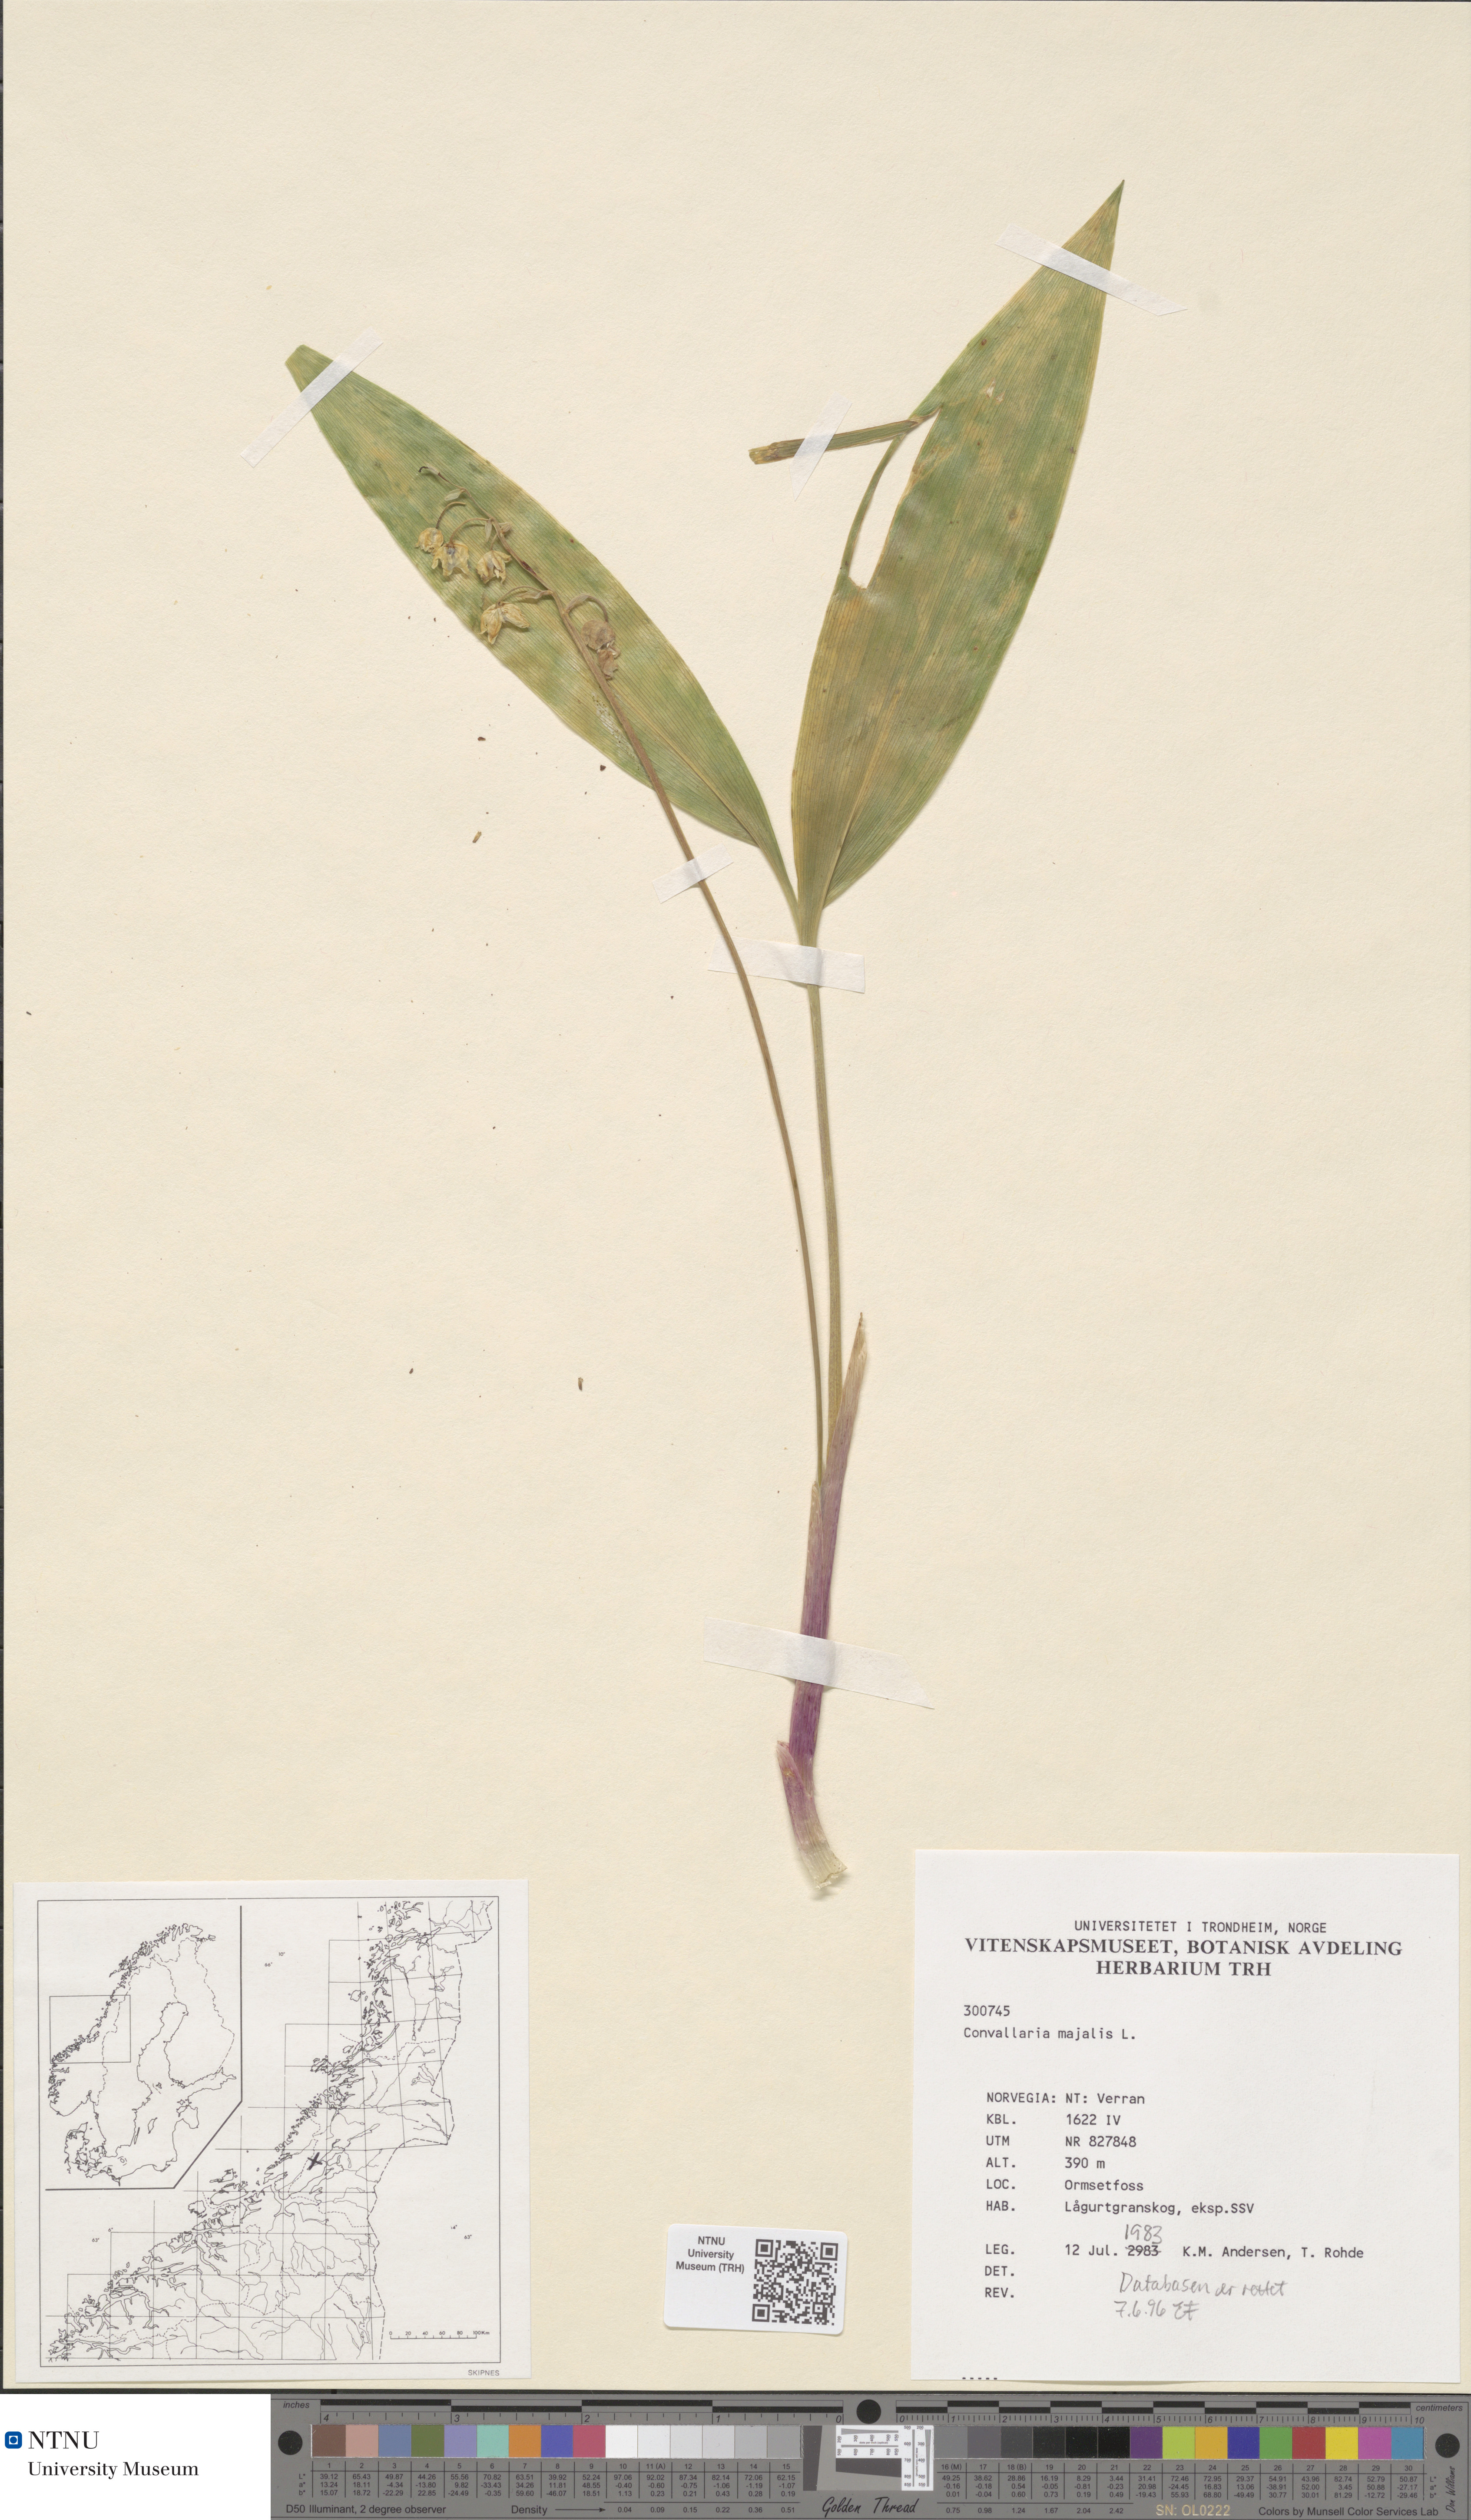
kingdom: Plantae
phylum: Tracheophyta
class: Liliopsida
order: Asparagales
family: Asparagaceae
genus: Convallaria
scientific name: Convallaria majalis
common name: Lily-of-the-valley
